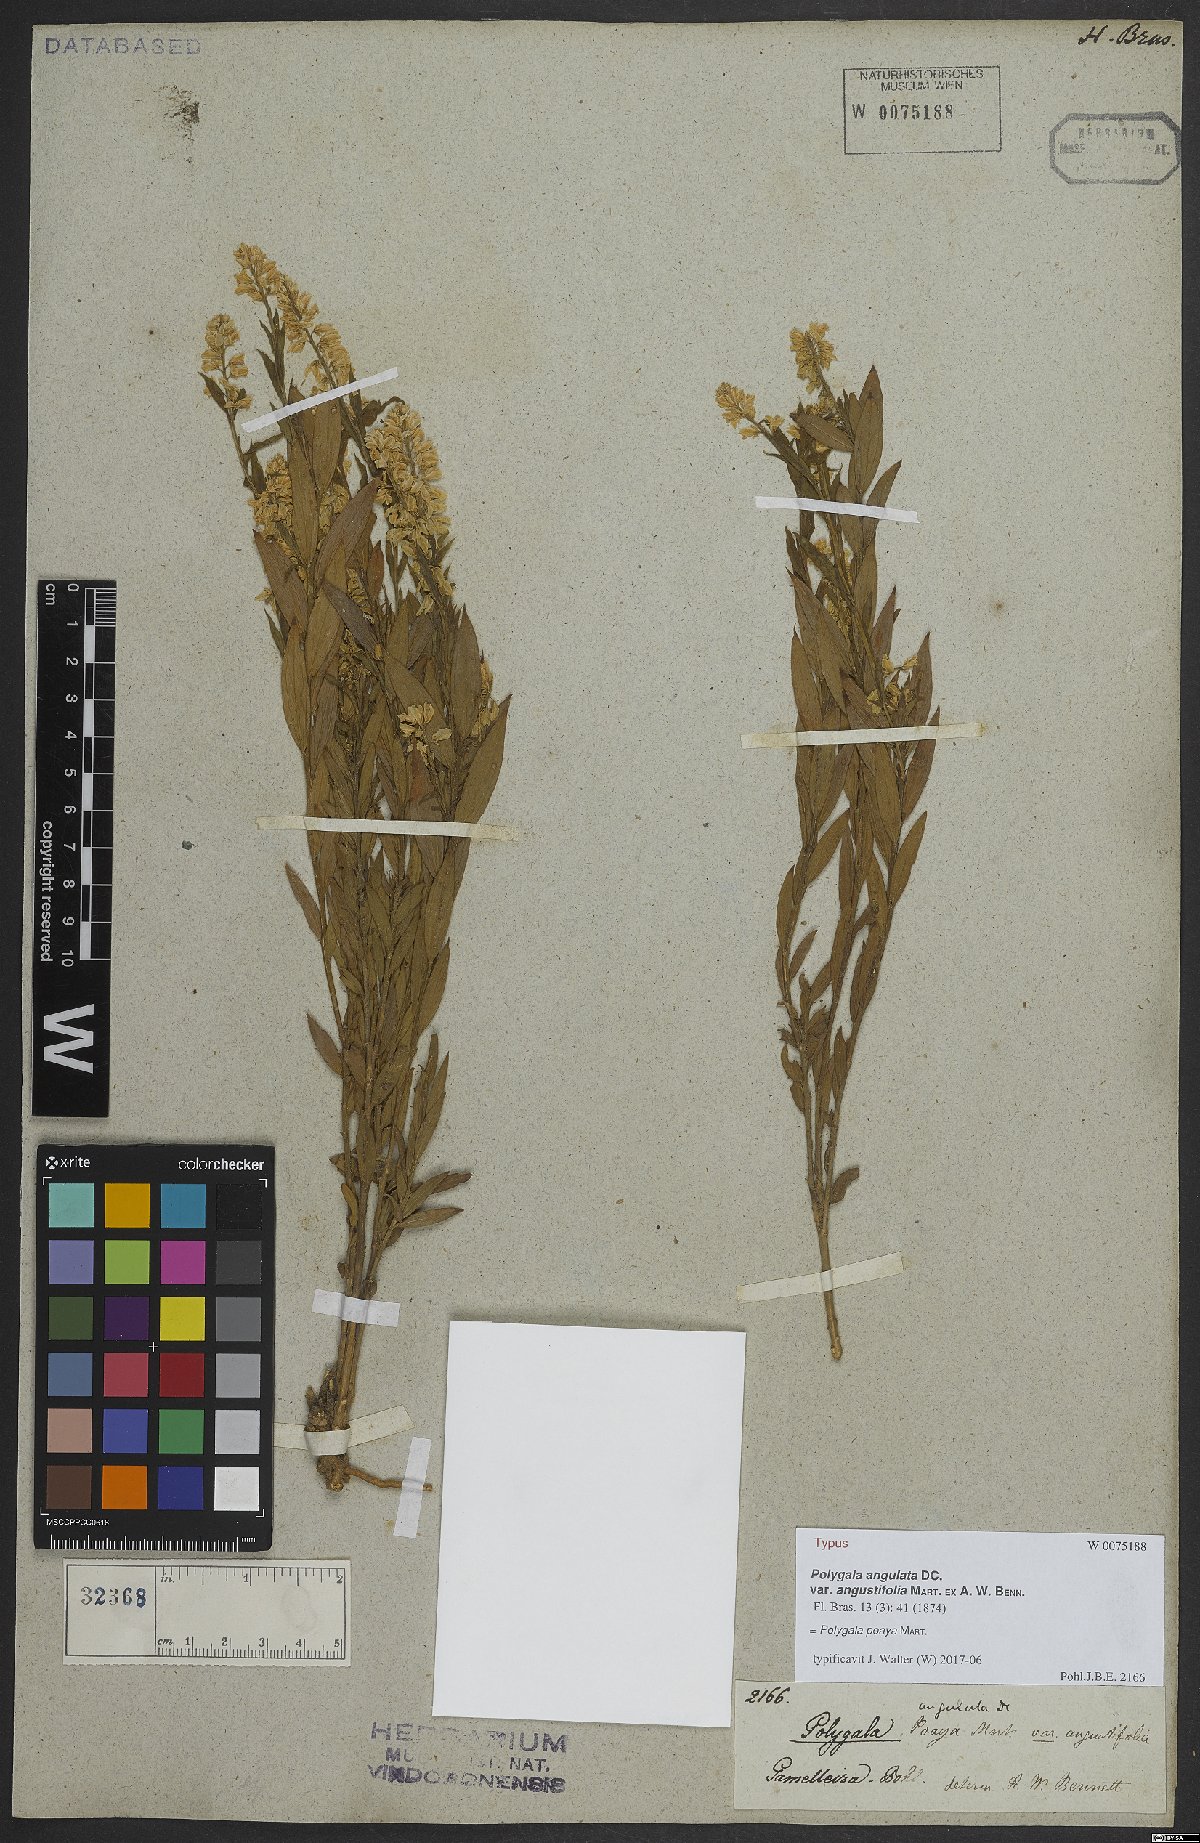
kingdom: Plantae
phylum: Tracheophyta
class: Magnoliopsida
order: Fabales
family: Polygalaceae
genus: Polygala
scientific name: Polygala poaya
